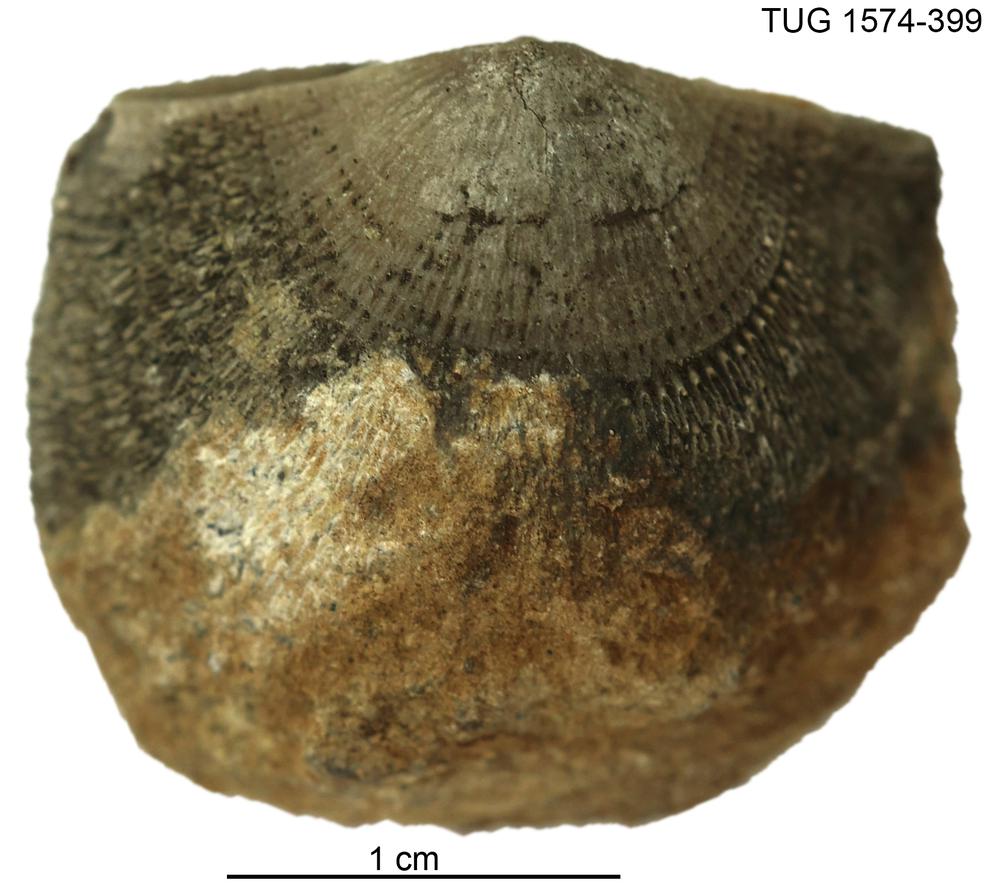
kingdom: Animalia
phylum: Brachiopoda
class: Rhynchonellata
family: Clitambonitidae
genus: Clitambonites
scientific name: Clitambonites
